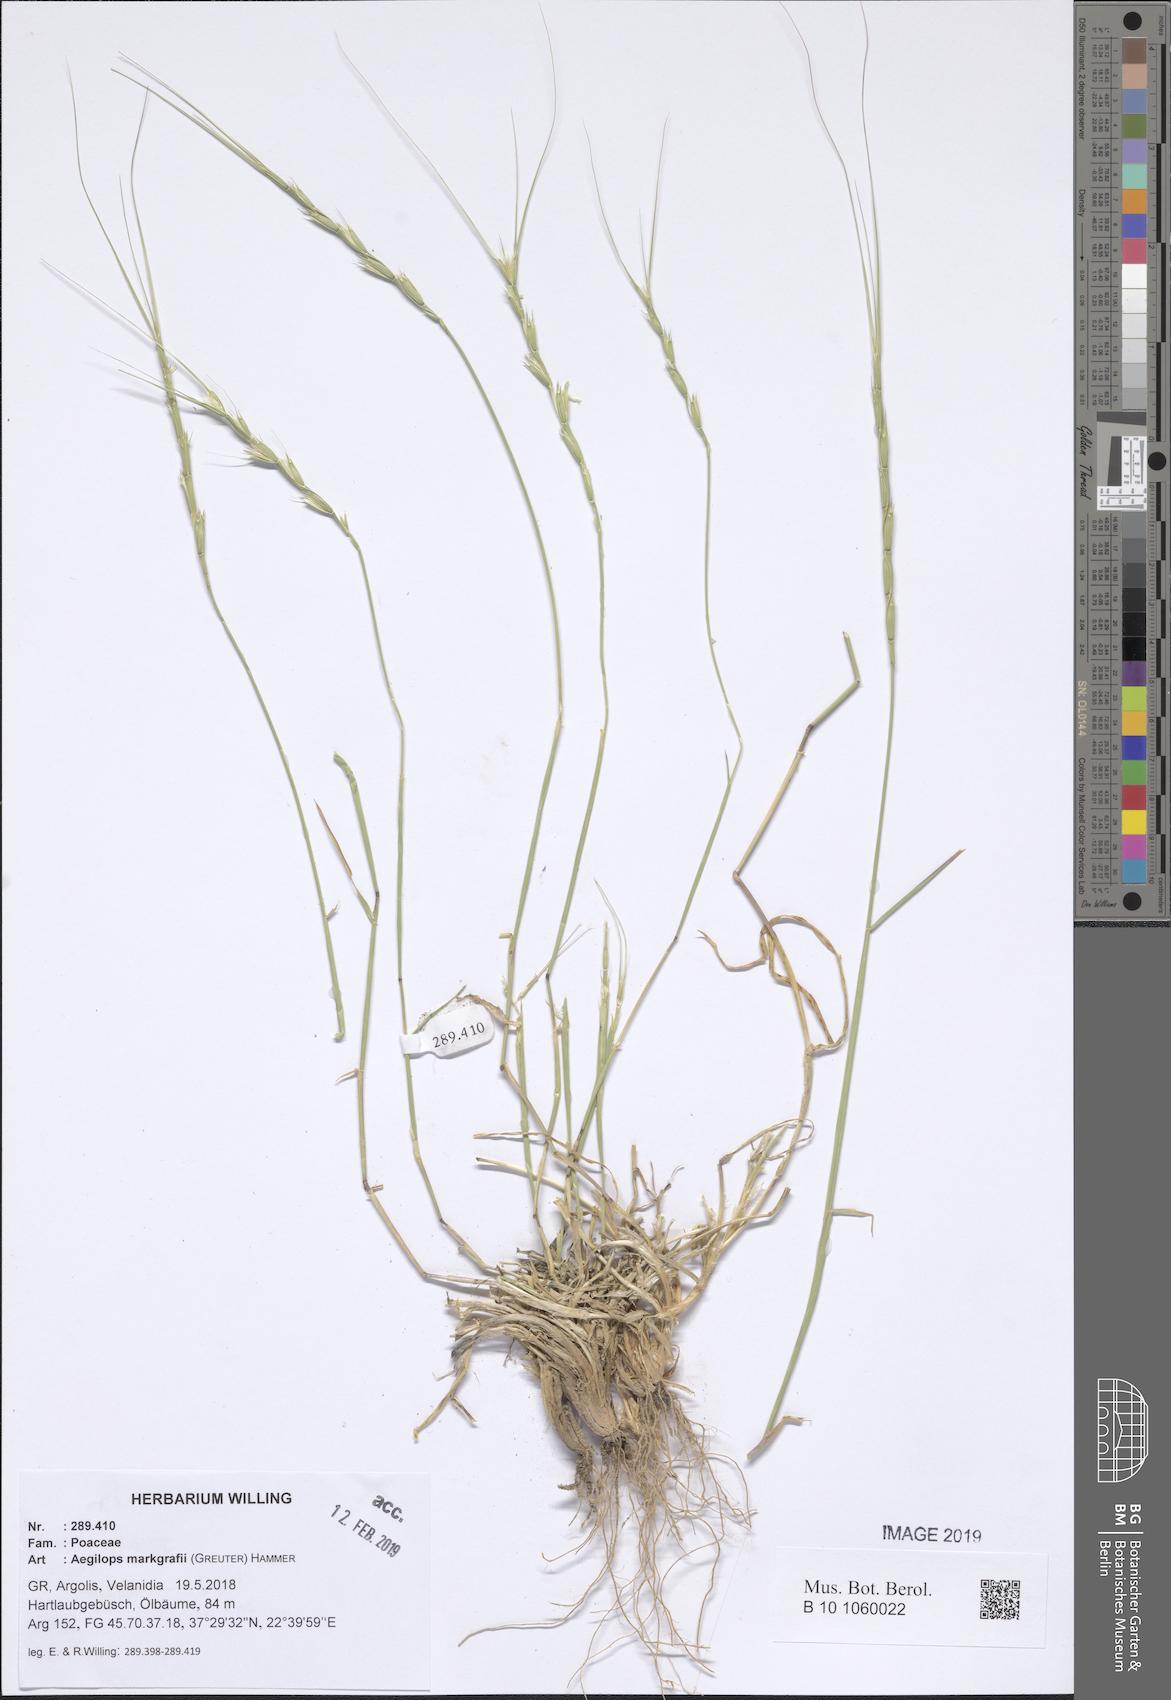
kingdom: Plantae
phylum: Tracheophyta
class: Liliopsida
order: Poales
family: Poaceae
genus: Aegilops
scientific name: Aegilops caudata
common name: Cretan hard-grass
